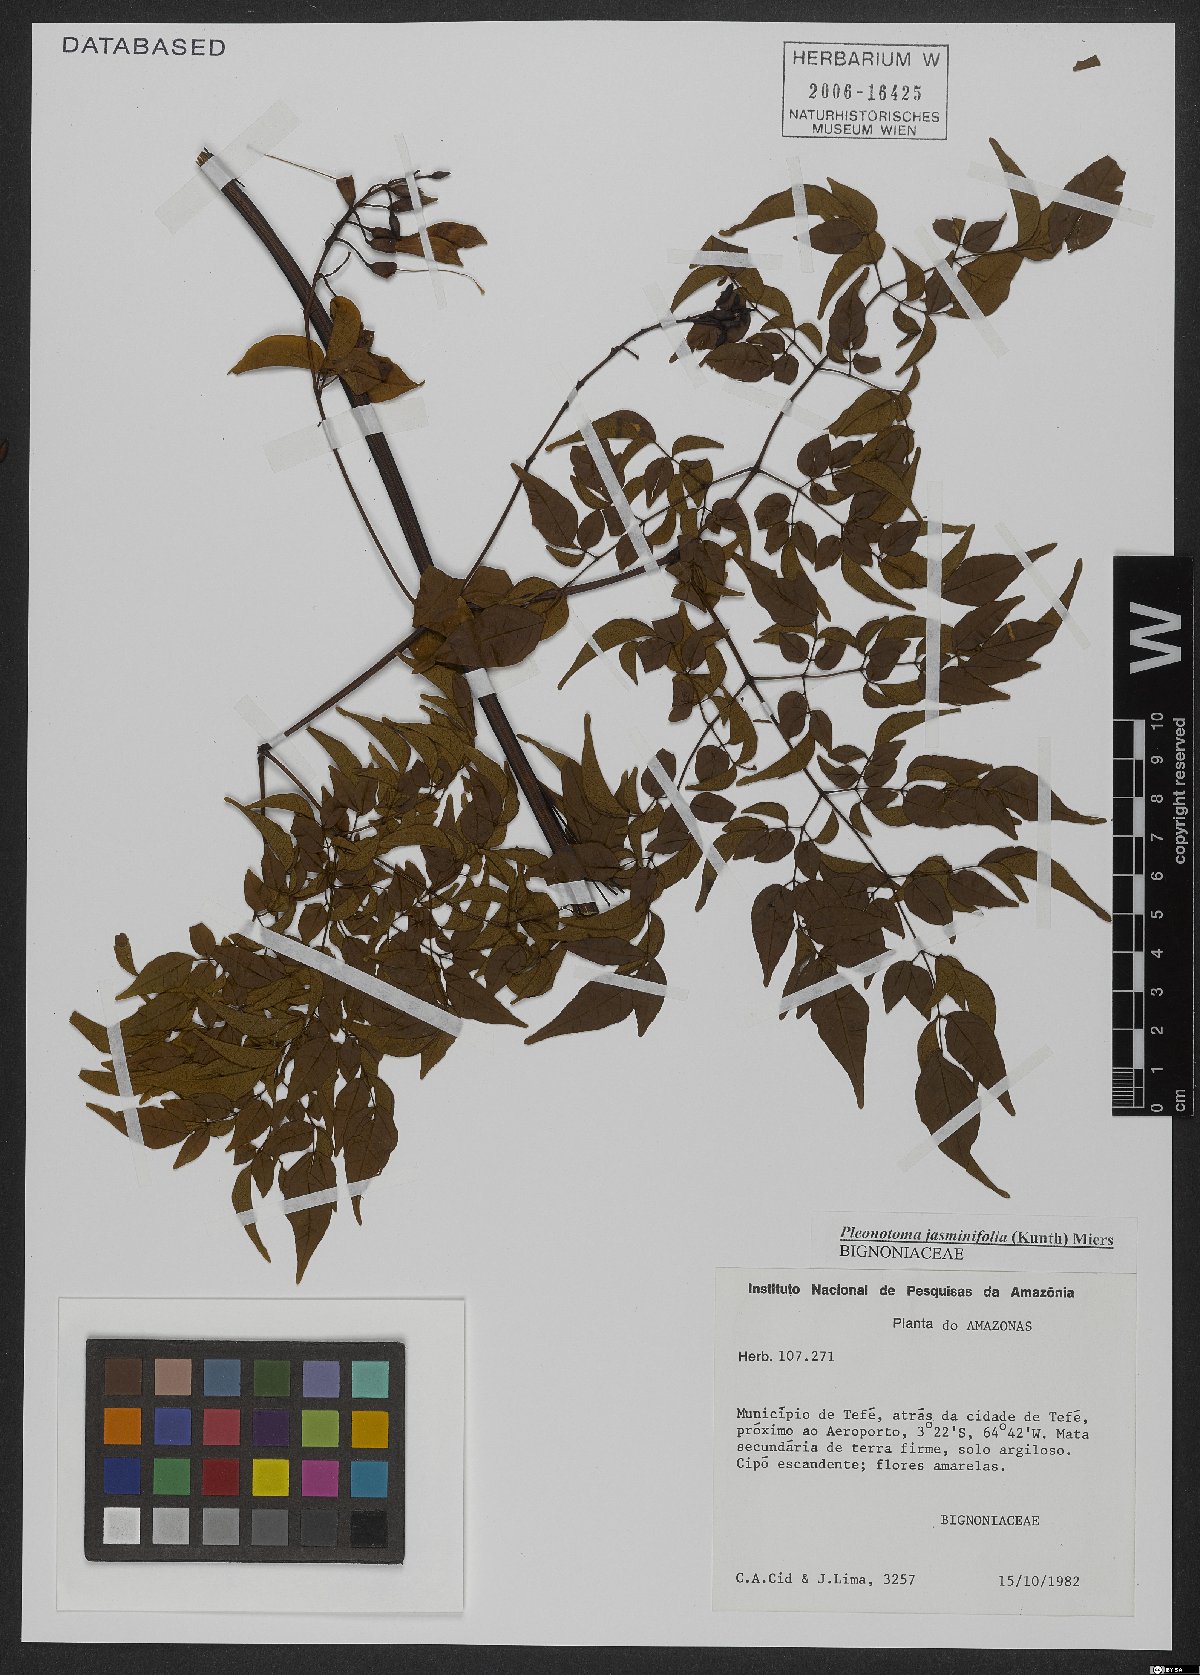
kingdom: Plantae
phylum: Tracheophyta
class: Magnoliopsida
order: Lamiales
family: Bignoniaceae
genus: Pleonotoma
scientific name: Pleonotoma jasminifolia
